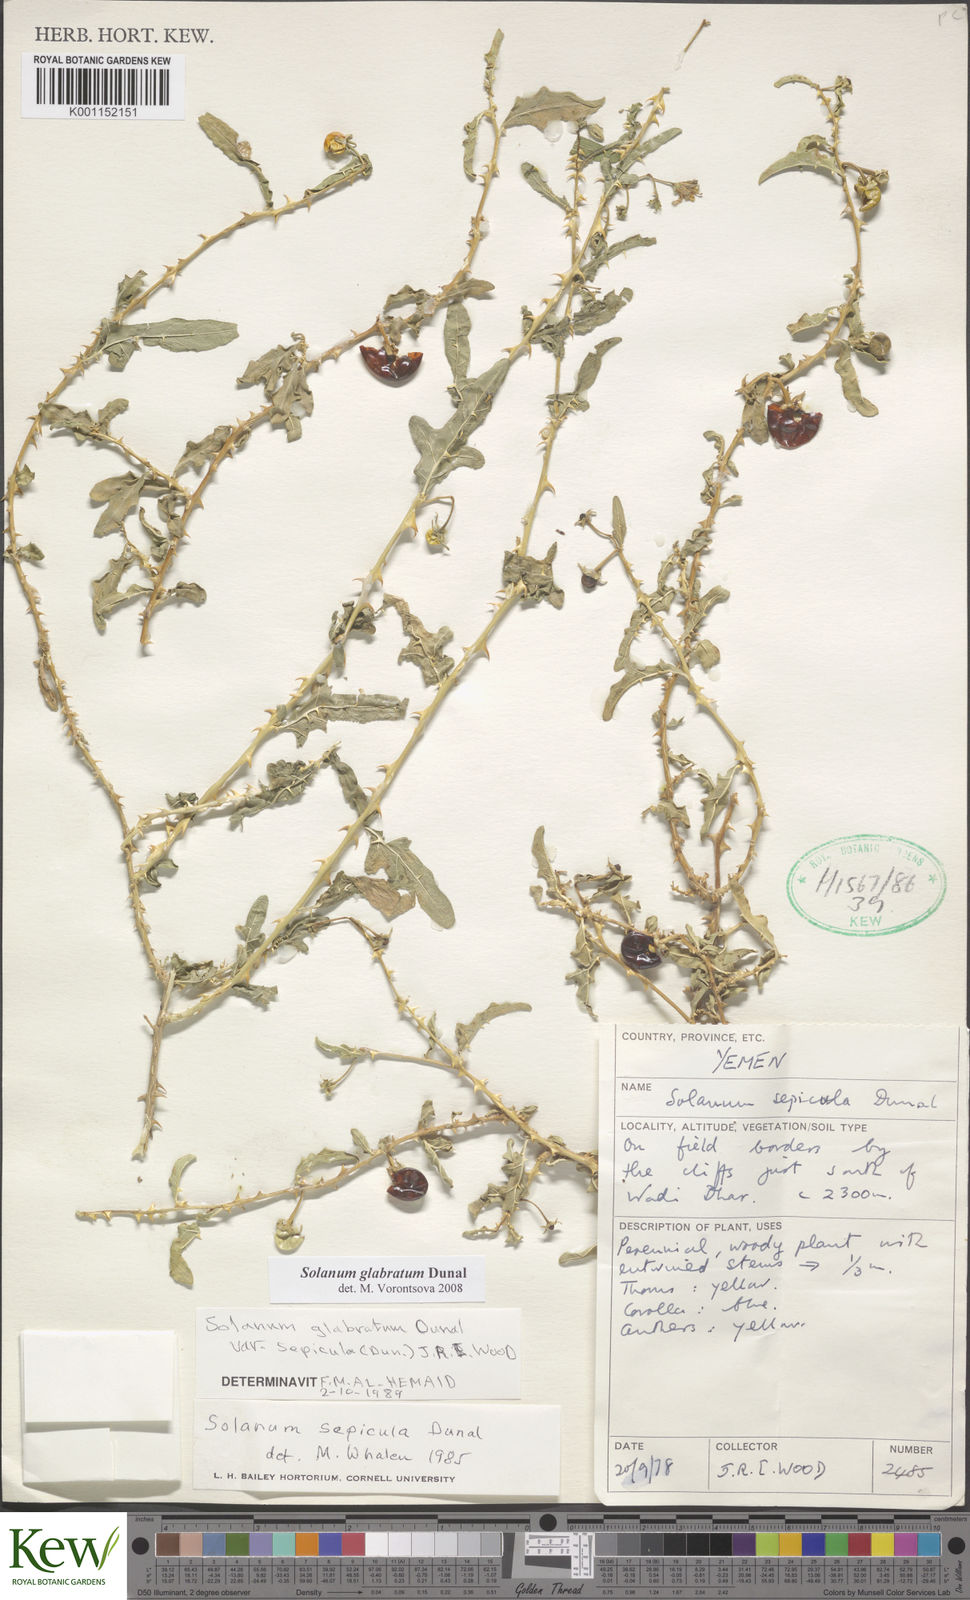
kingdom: Plantae
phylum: Tracheophyta
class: Magnoliopsida
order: Solanales
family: Solanaceae
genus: Solanum
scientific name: Solanum glabratum
